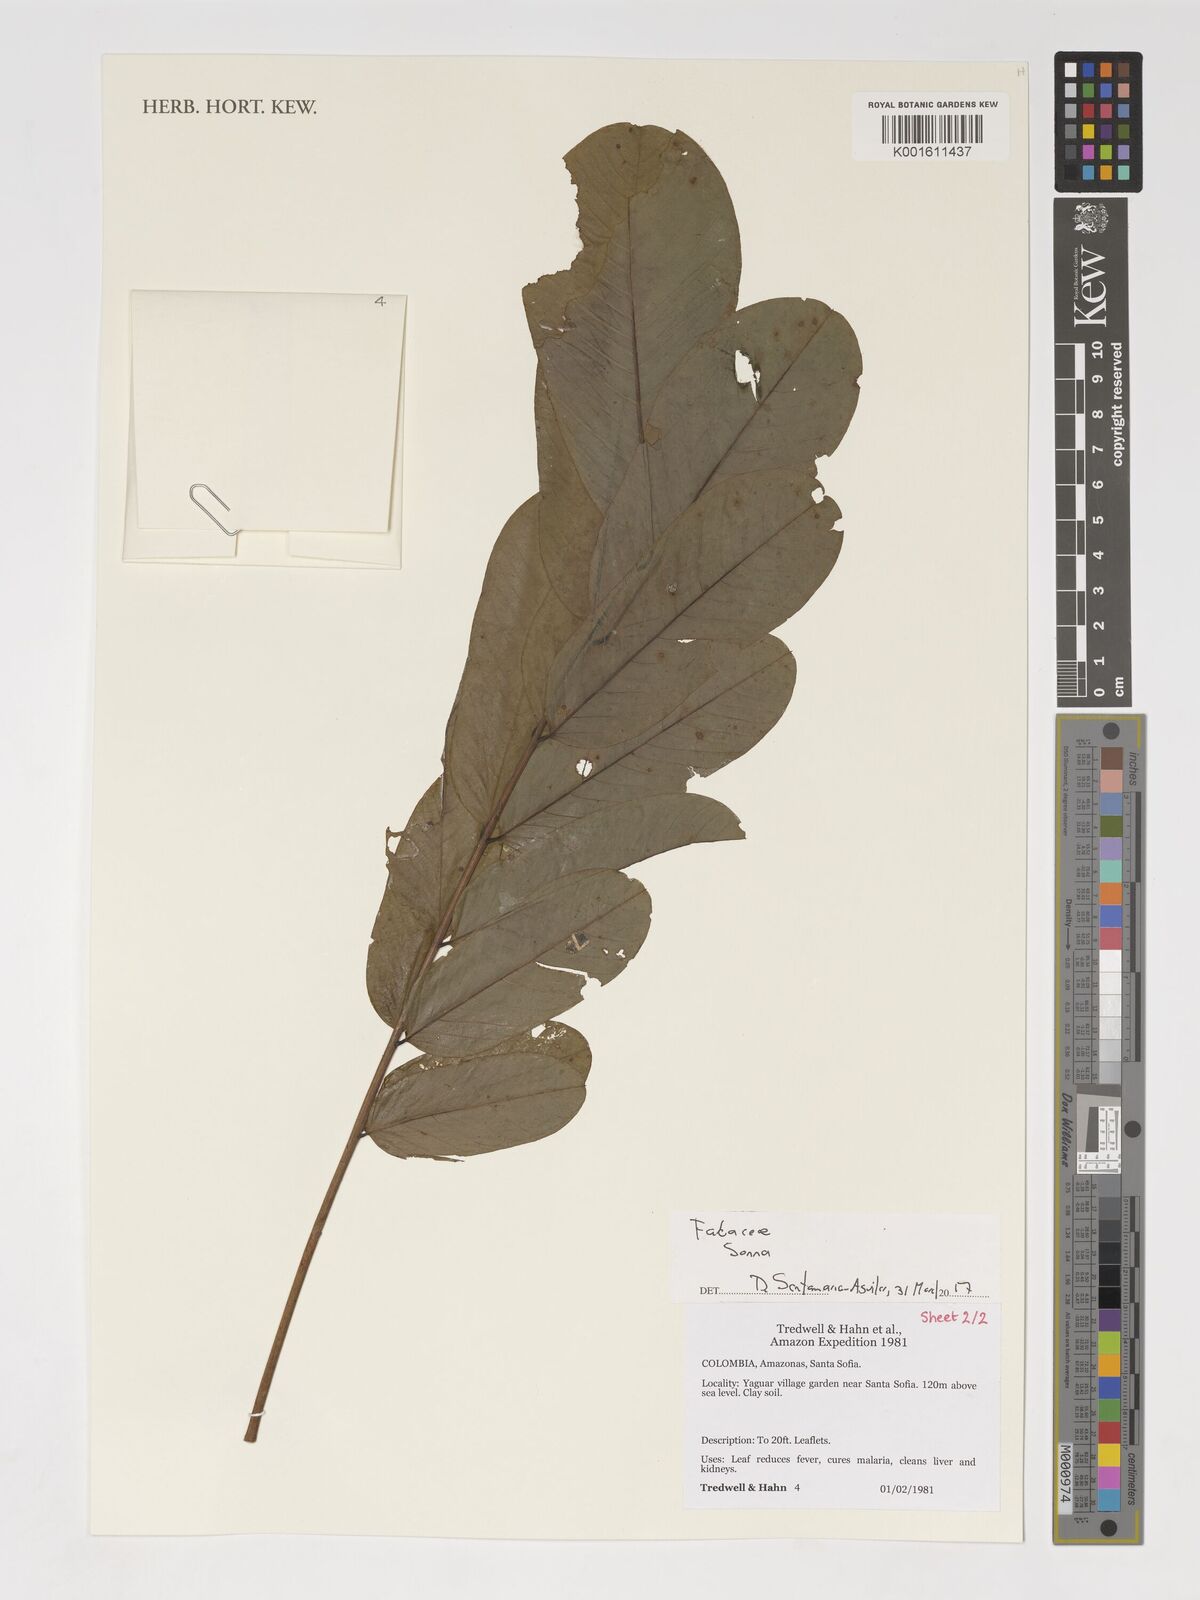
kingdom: Plantae
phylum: Tracheophyta
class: Magnoliopsida
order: Fabales
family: Fabaceae
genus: Senna
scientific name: Senna
